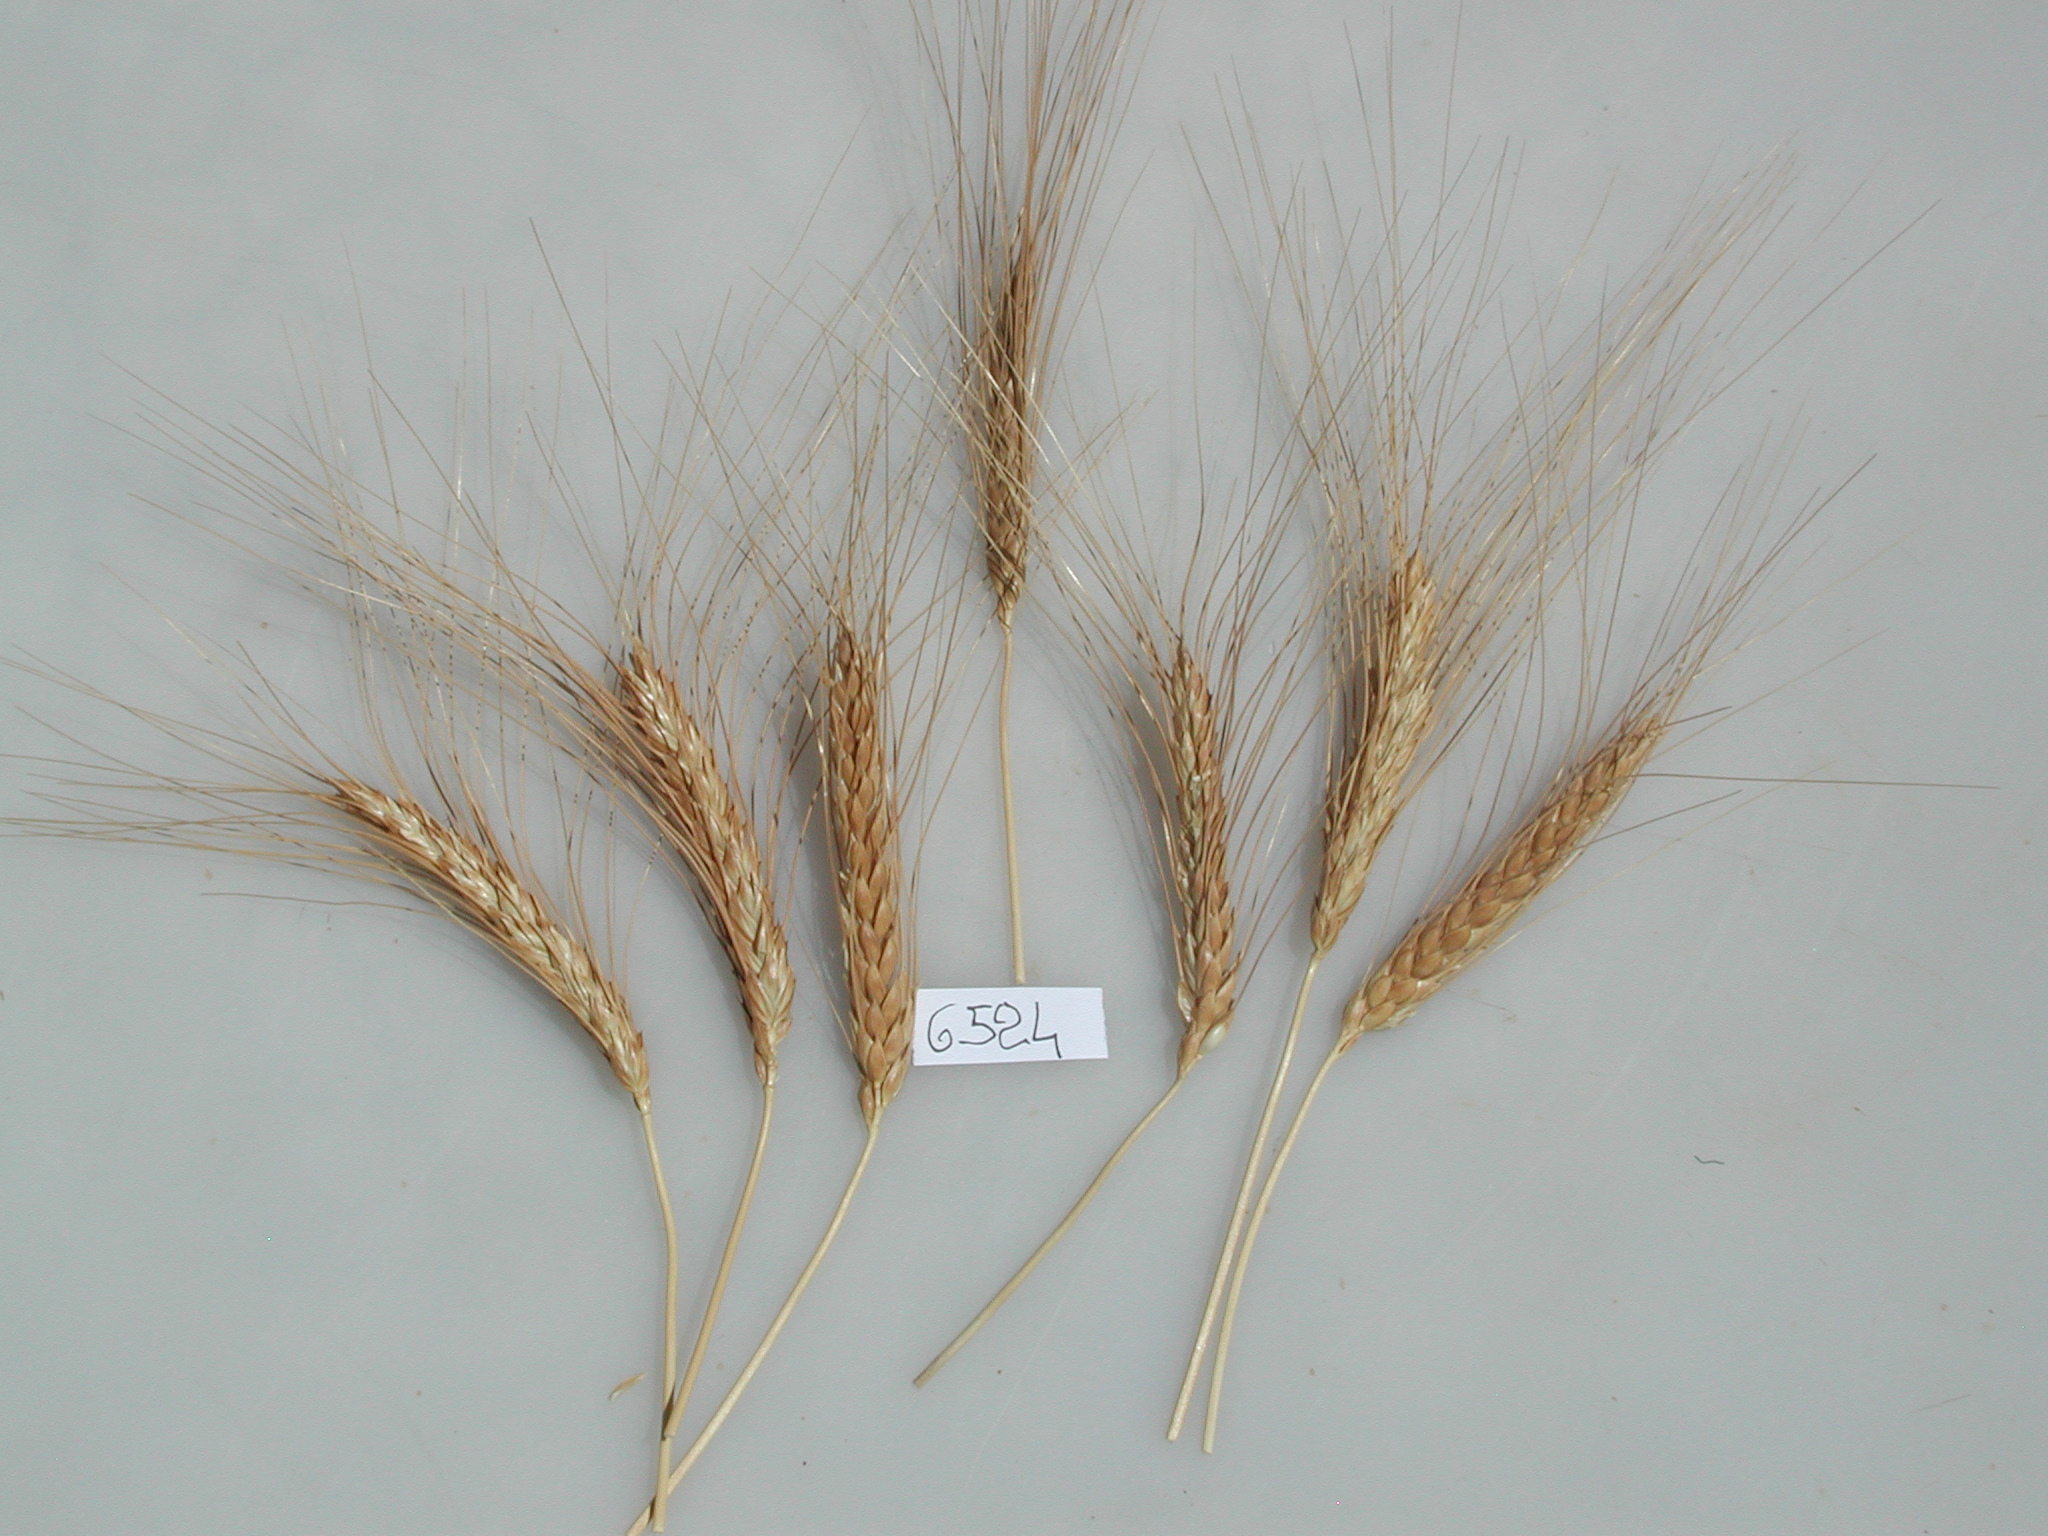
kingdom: Plantae
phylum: Tracheophyta
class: Liliopsida
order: Poales
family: Poaceae
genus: Triticum
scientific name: Triticum turgidum
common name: Wheat
